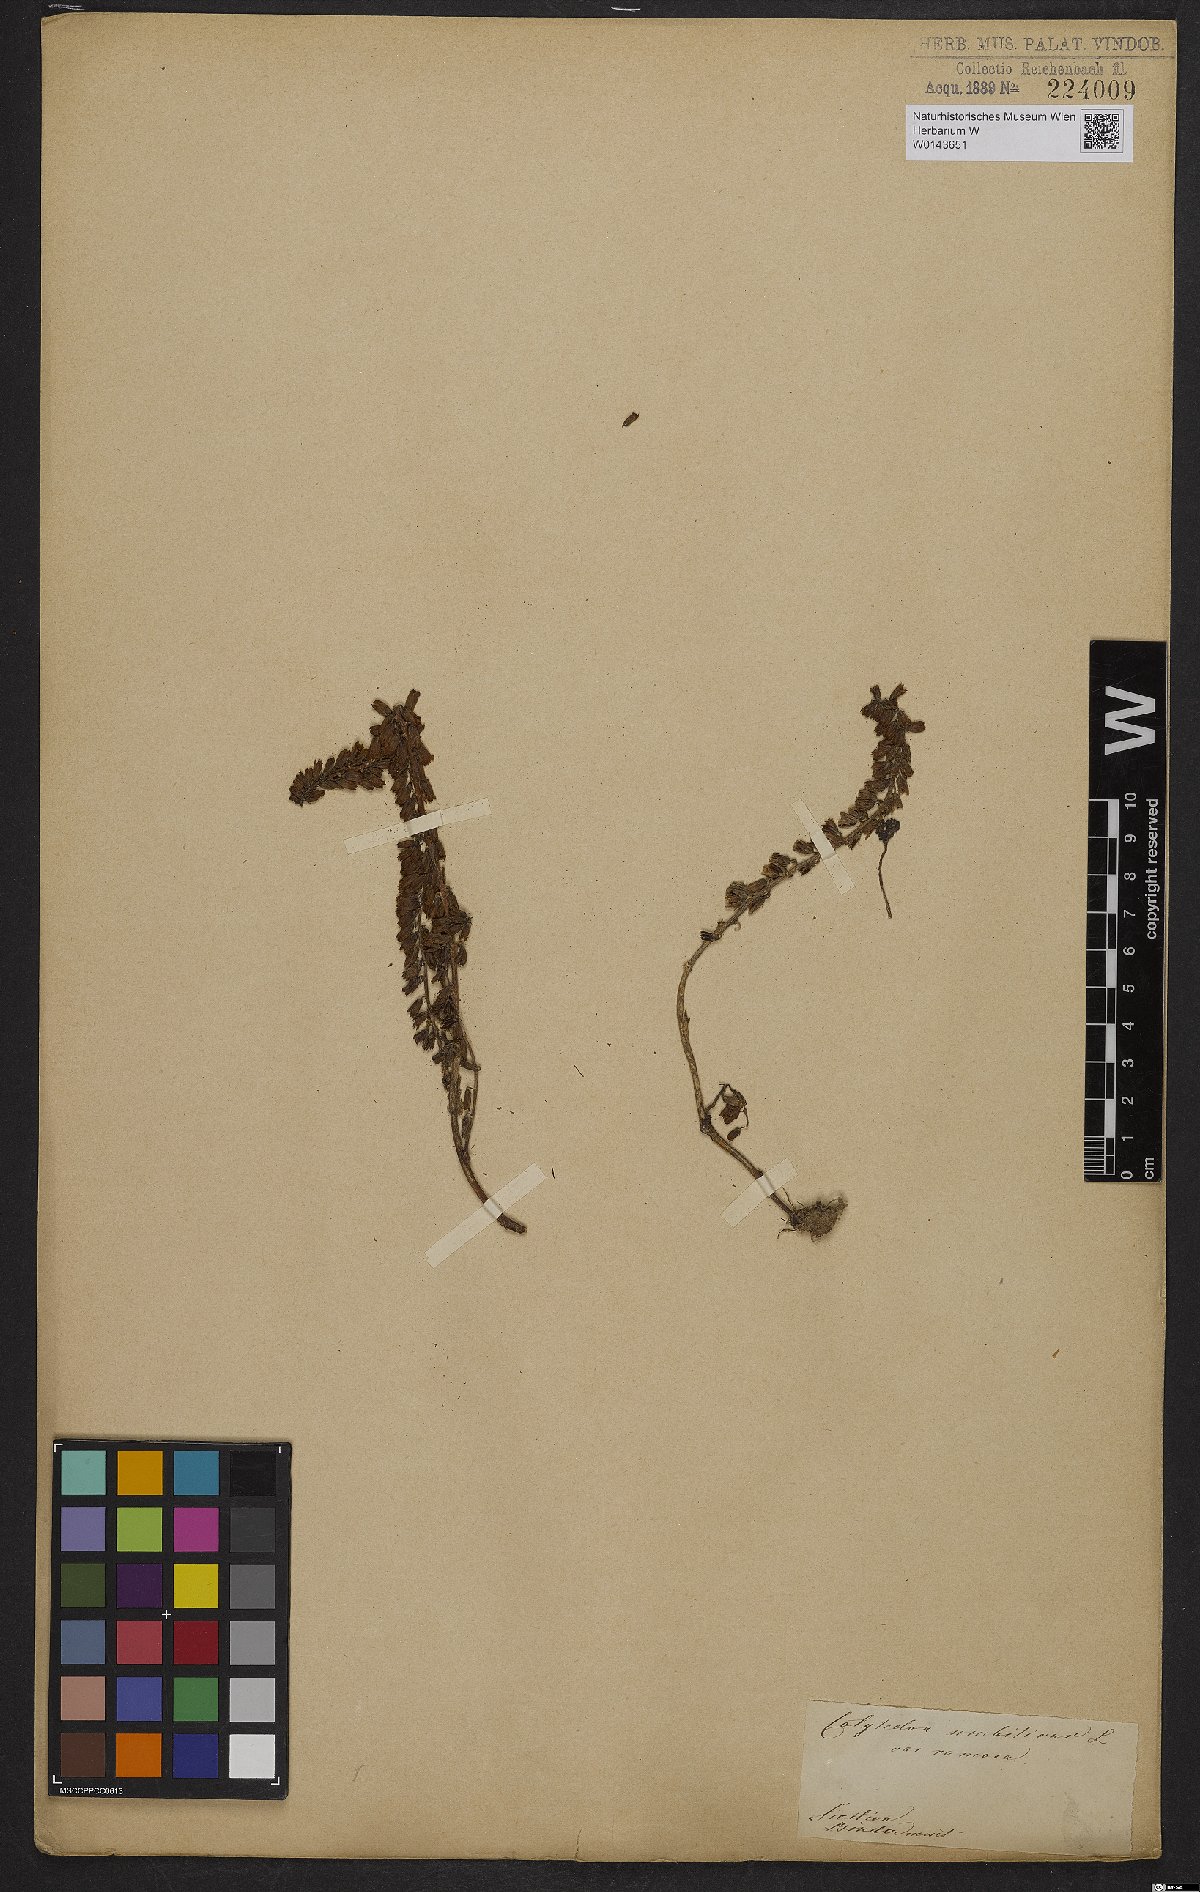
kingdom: Plantae
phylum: Tracheophyta
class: Magnoliopsida
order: Saxifragales
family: Crassulaceae
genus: Umbilicus
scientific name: Umbilicus rupestris
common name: Navelwort
